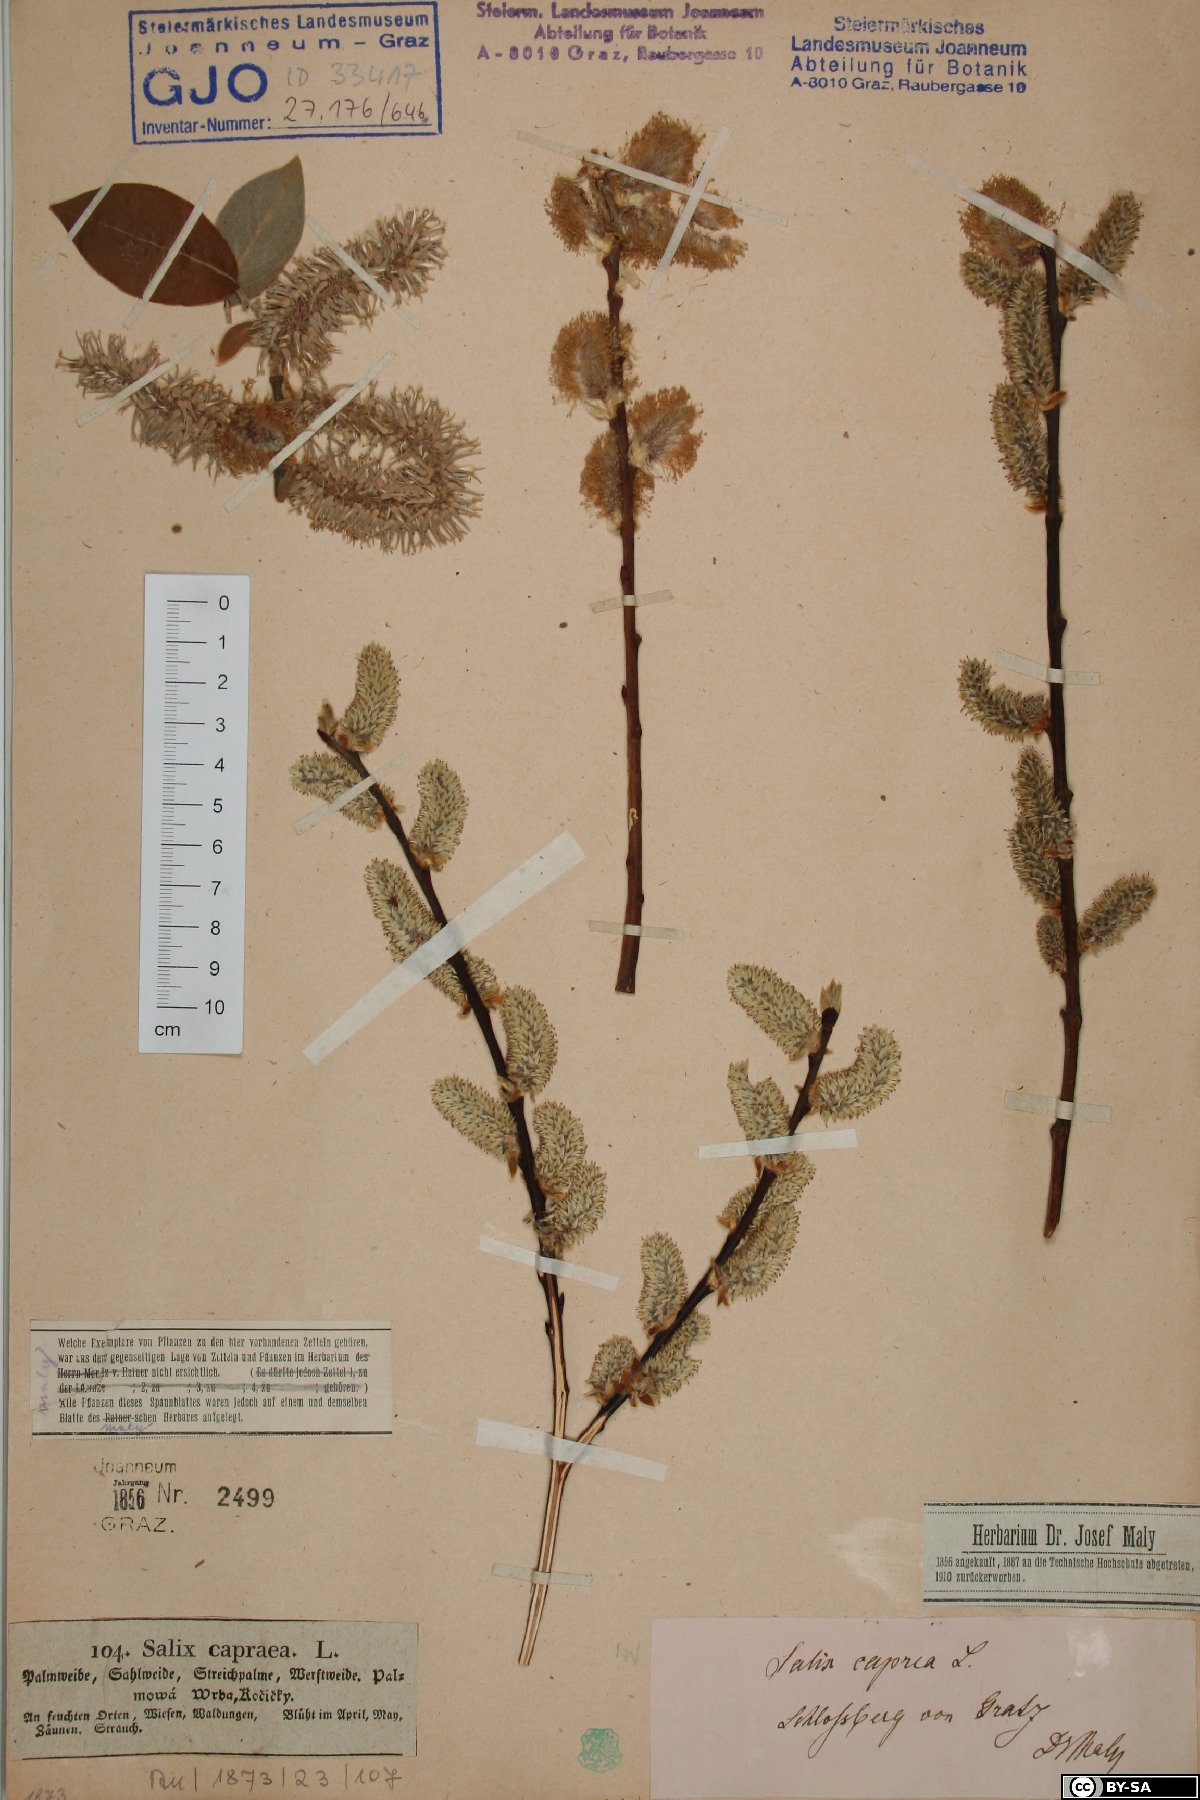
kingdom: Plantae
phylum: Tracheophyta
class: Magnoliopsida
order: Malpighiales
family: Salicaceae
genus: Salix
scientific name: Salix caprea
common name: Goat willow
